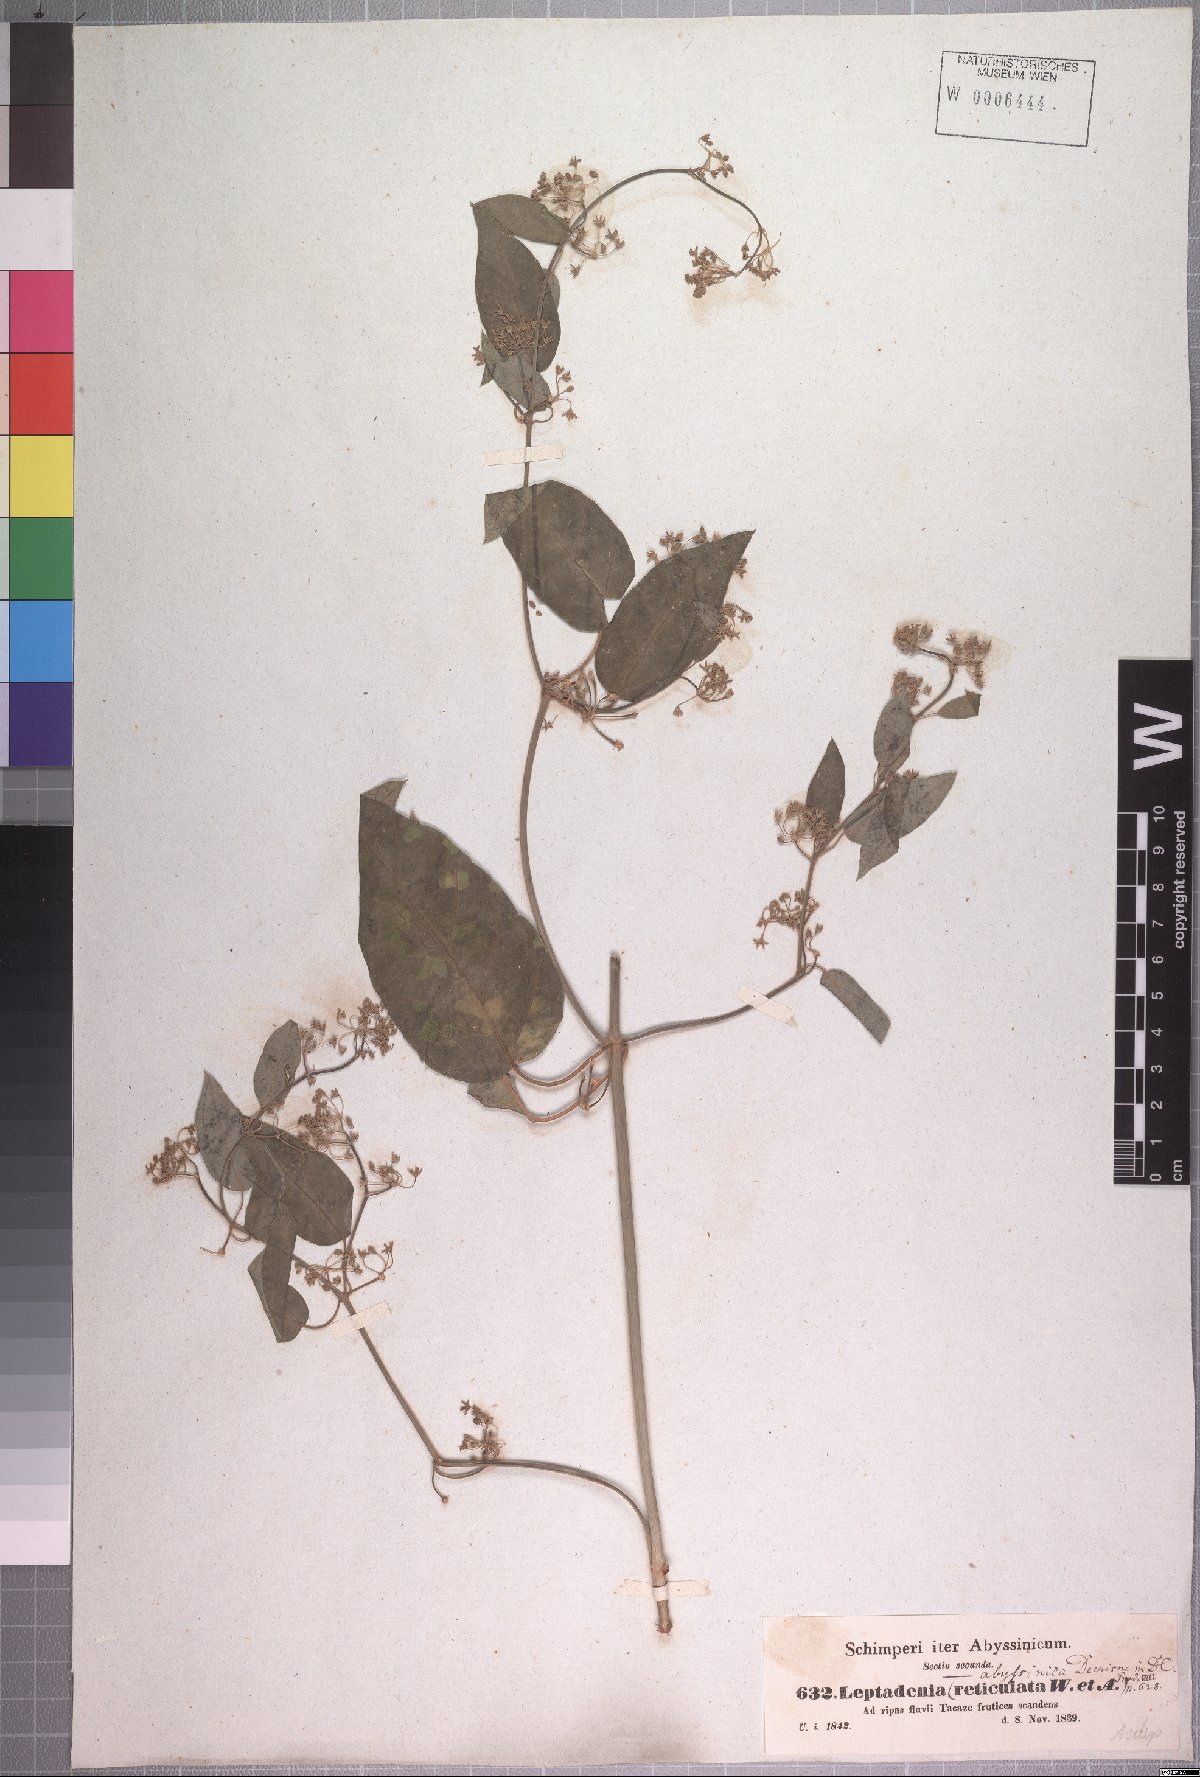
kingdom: Plantae
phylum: Tracheophyta
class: Magnoliopsida
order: Gentianales
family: Apocynaceae
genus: Leptadenia
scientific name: Leptadenia arborea
